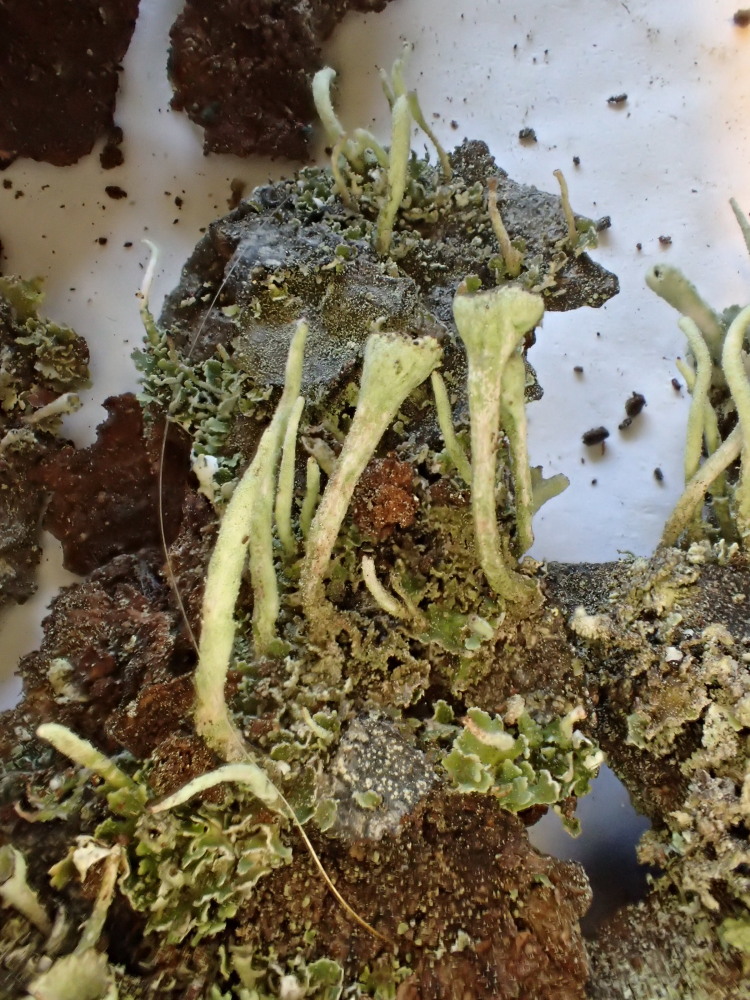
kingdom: Fungi
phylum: Ascomycota
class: Lecanoromycetes
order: Lecanorales
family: Cladoniaceae
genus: Cladonia
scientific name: Cladonia fimbriata
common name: bleggrøn bægerlav
